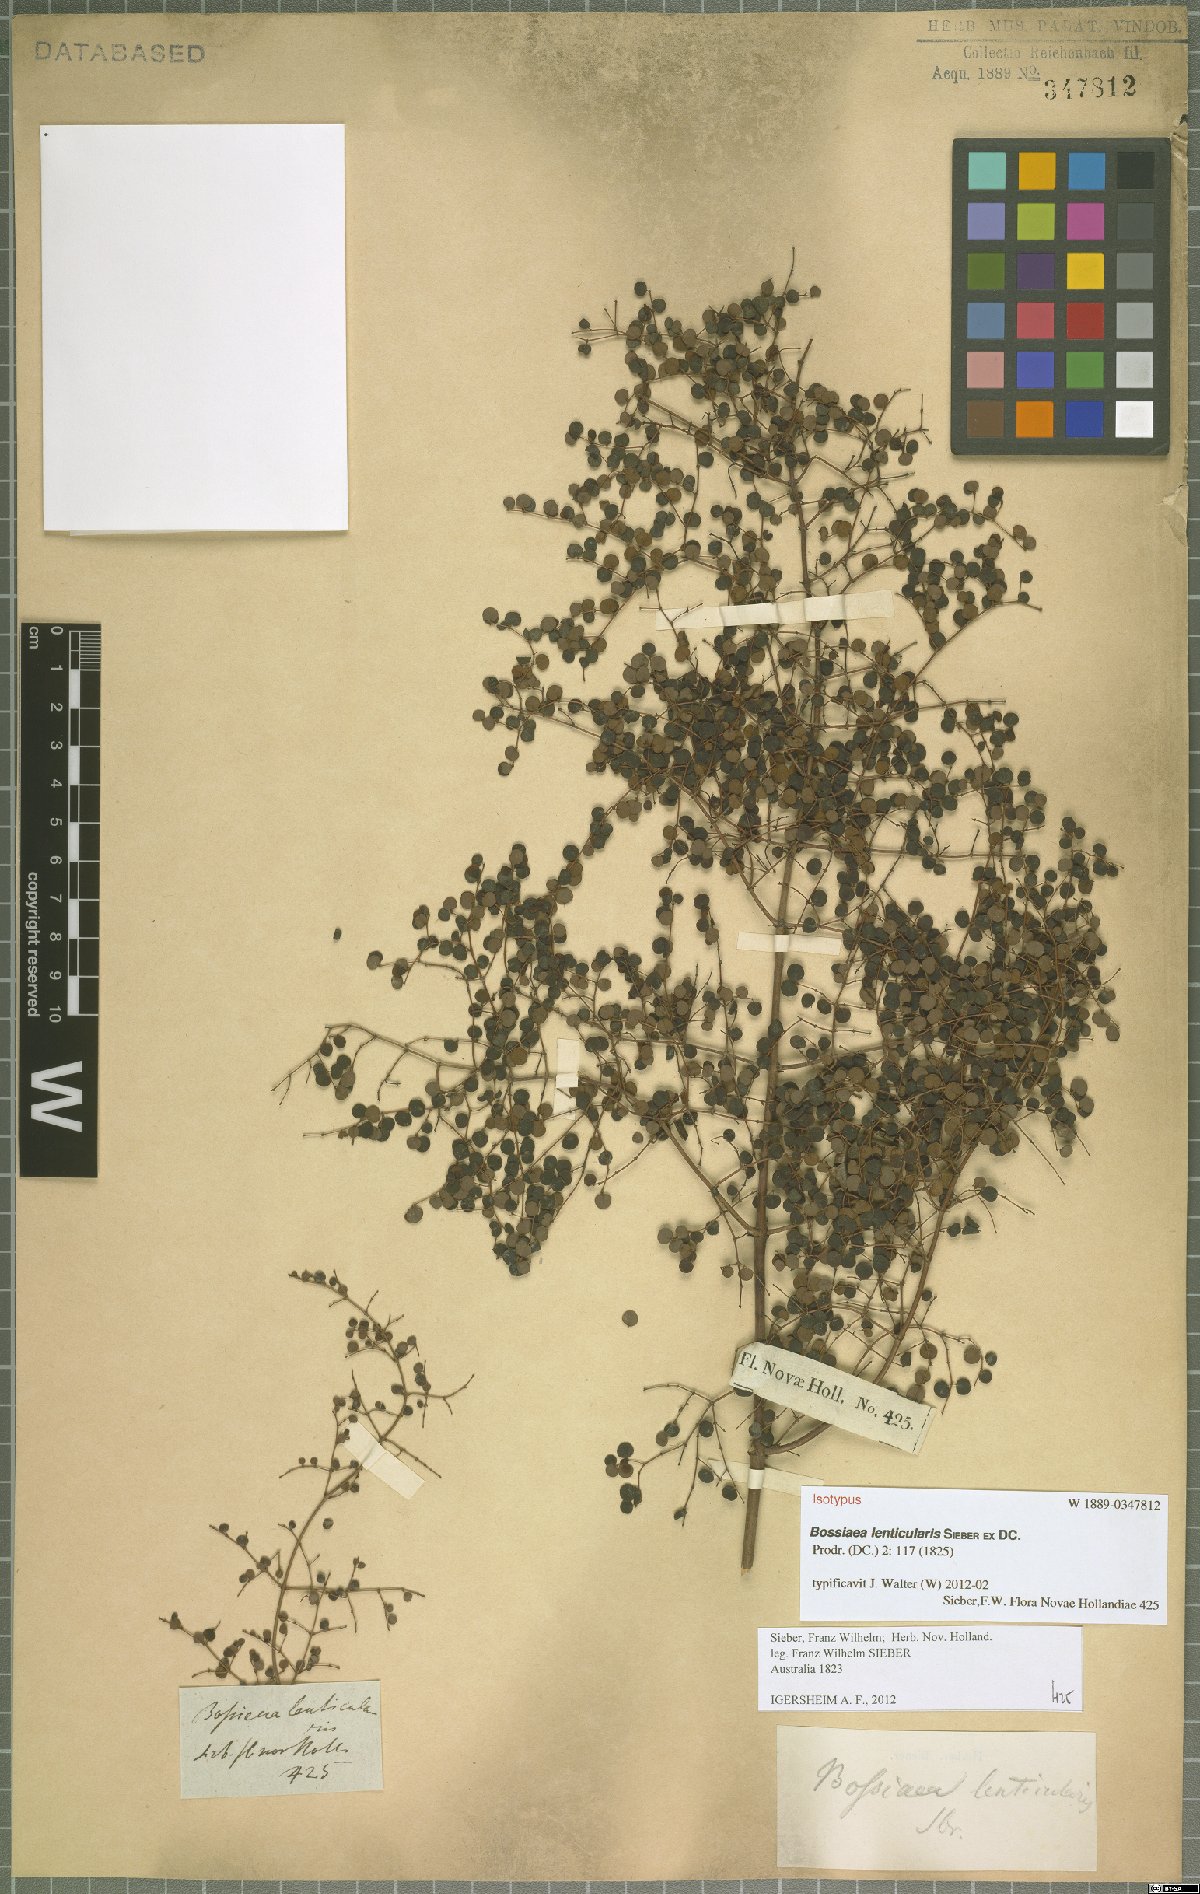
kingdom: Plantae
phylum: Tracheophyta
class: Magnoliopsida
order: Fabales
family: Fabaceae
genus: Bossiaea
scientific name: Bossiaea lenticularis
